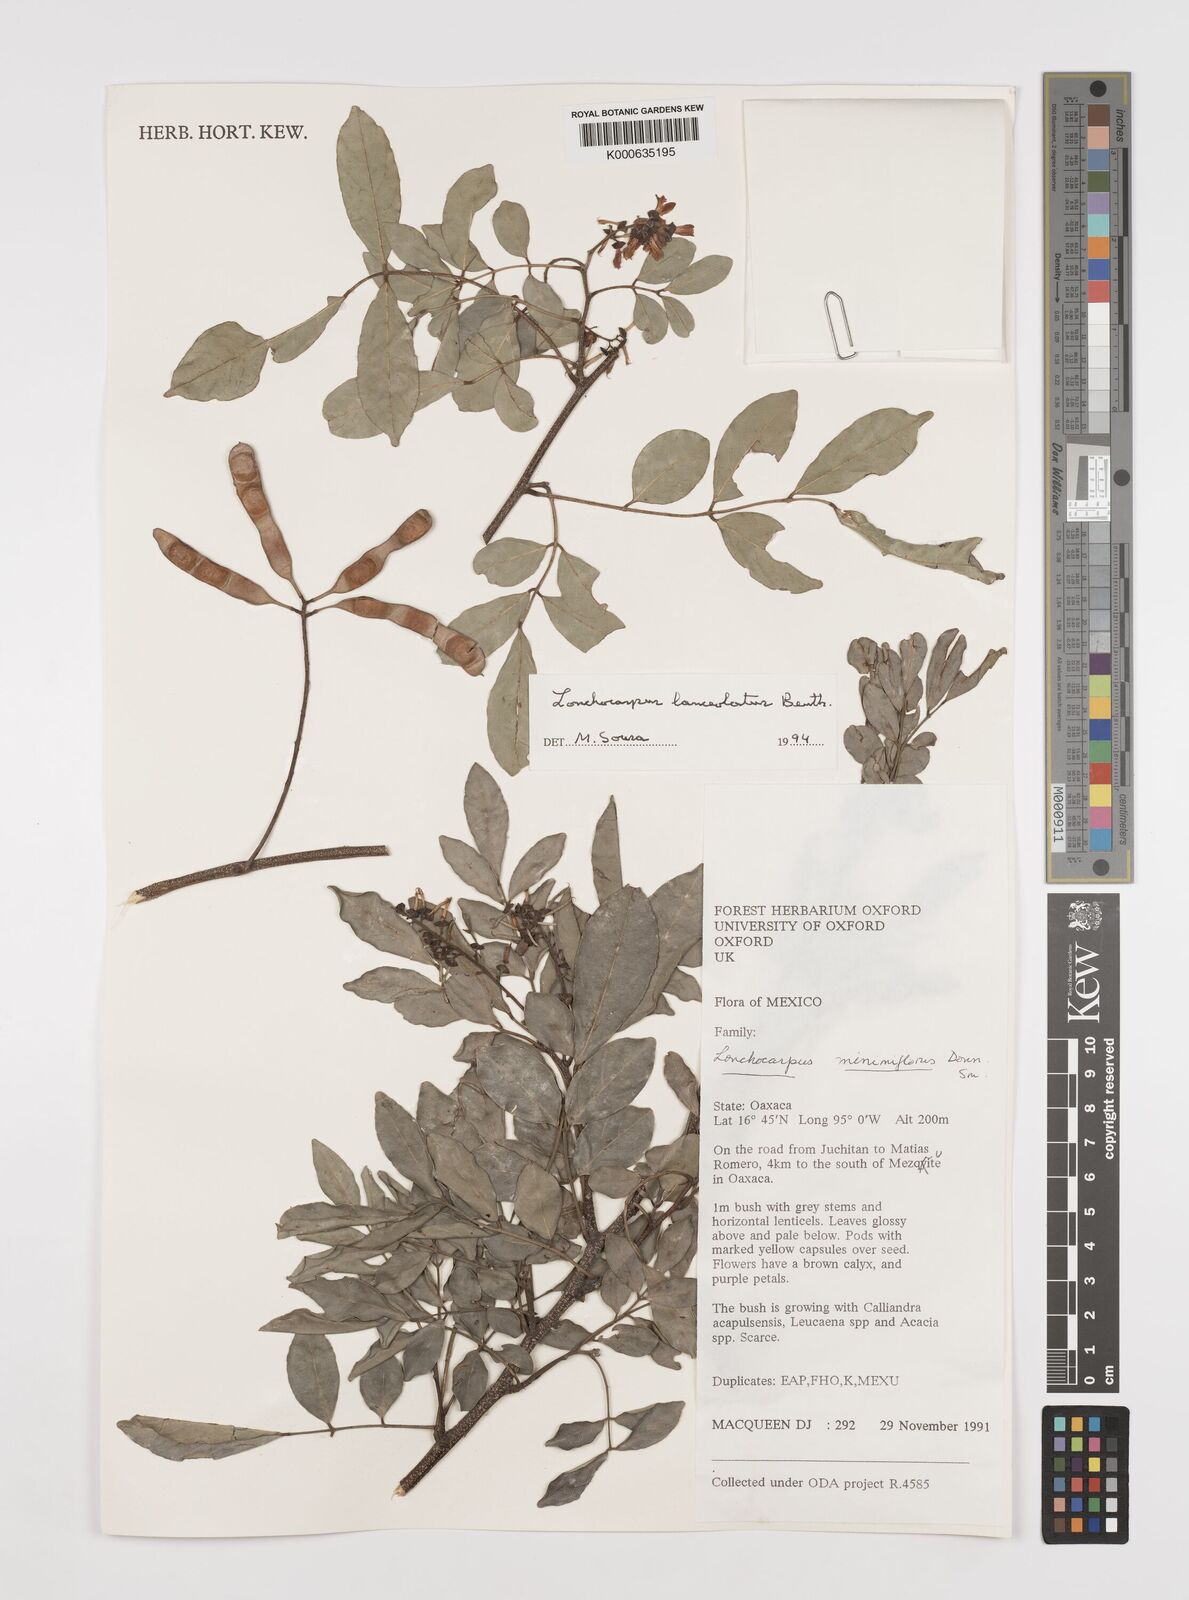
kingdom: Plantae
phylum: Tracheophyta
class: Magnoliopsida
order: Fabales
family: Fabaceae
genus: Lonchocarpus
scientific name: Lonchocarpus lanceolatus
